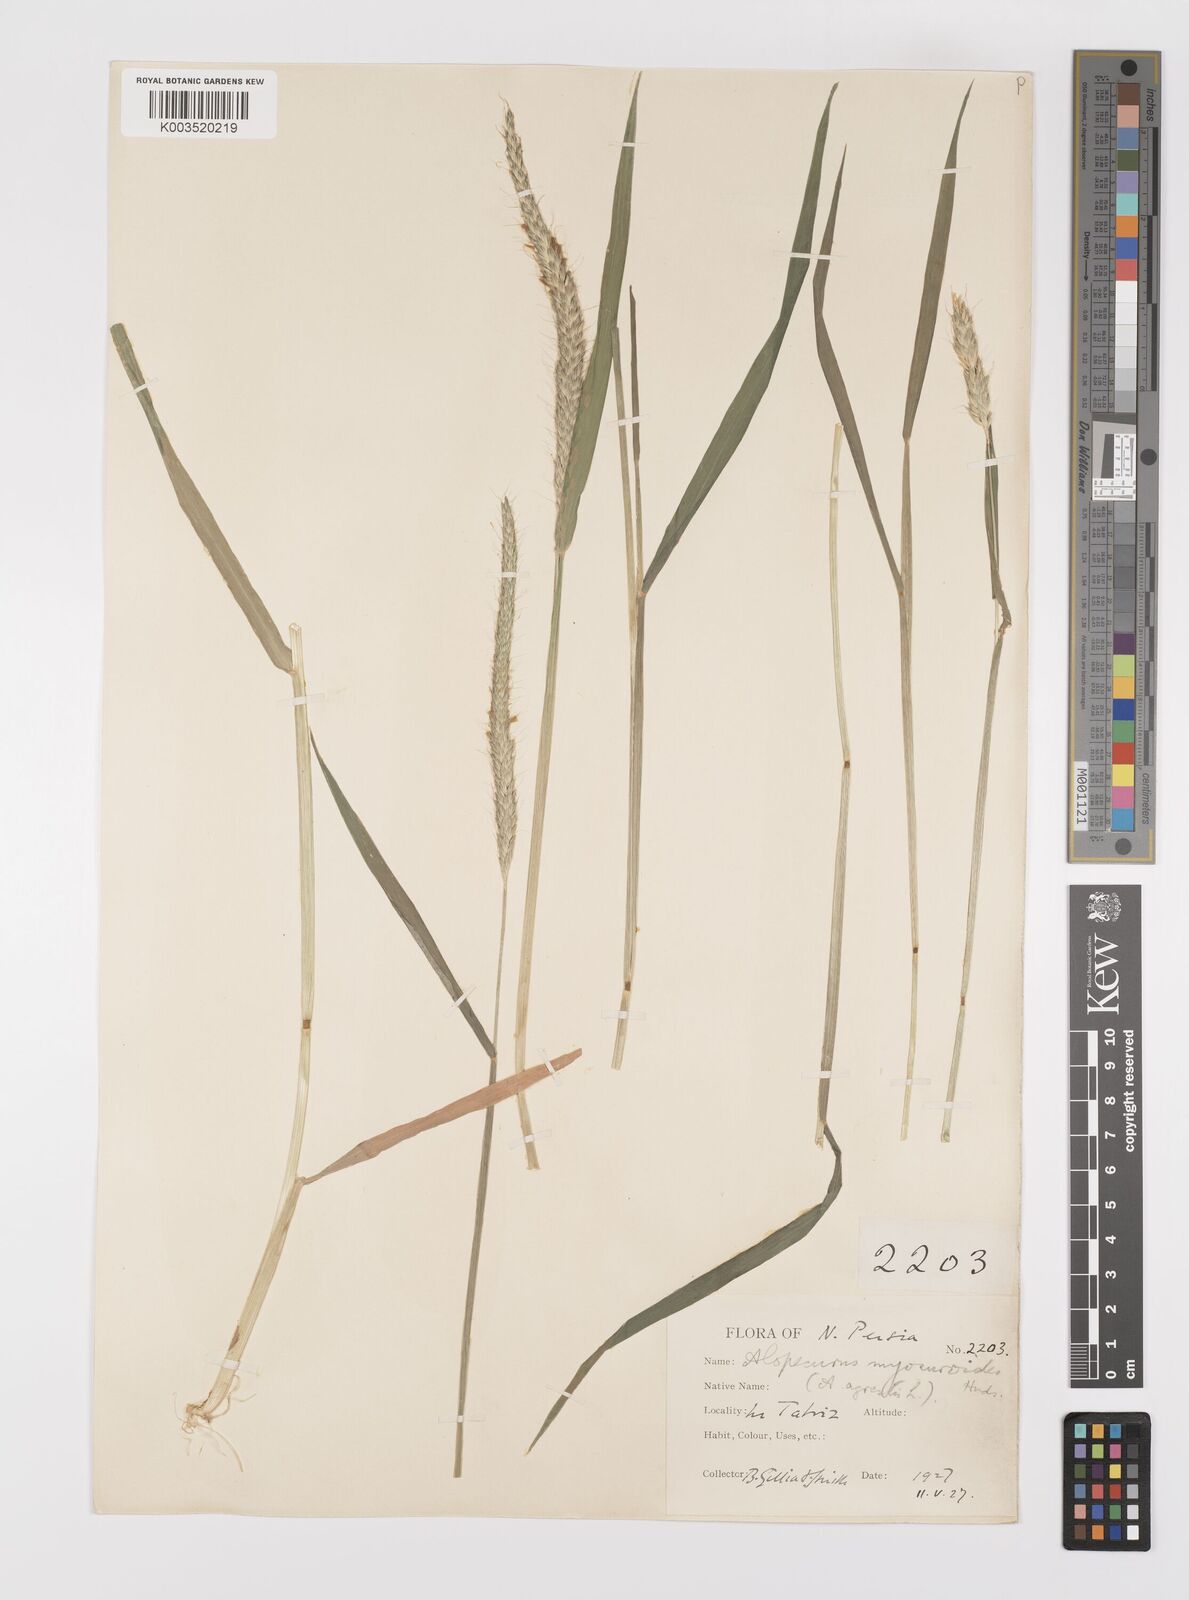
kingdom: Plantae
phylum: Tracheophyta
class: Liliopsida
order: Poales
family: Poaceae
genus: Alopecurus
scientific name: Alopecurus myosuroides
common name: Black-grass
